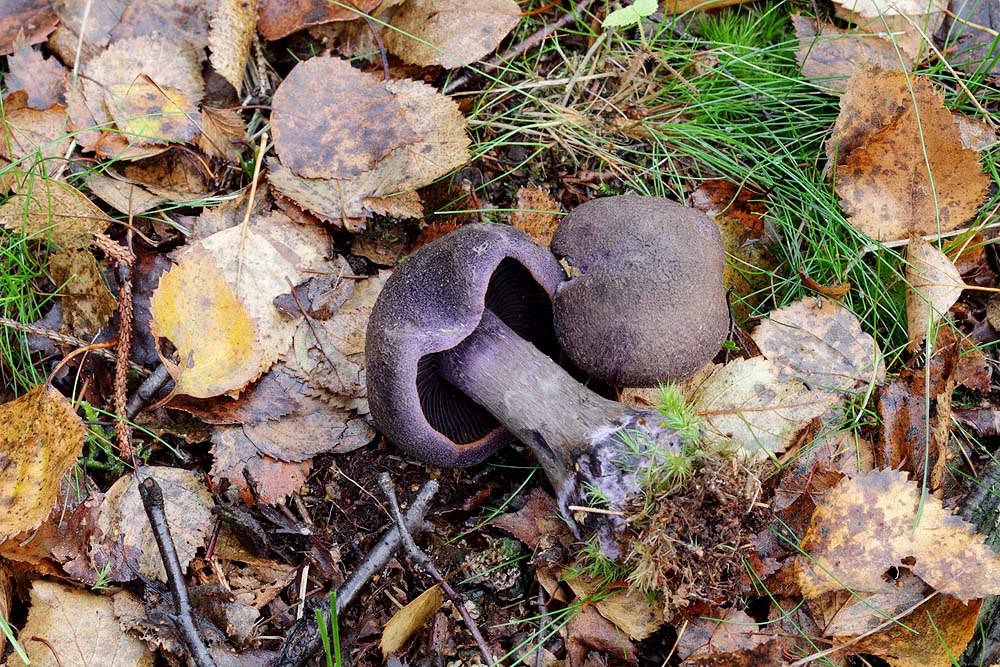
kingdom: Fungi
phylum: Basidiomycota
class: Agaricomycetes
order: Agaricales
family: Cortinariaceae
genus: Cortinarius
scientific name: Cortinarius violaceus
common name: mørkviolet slørhat
